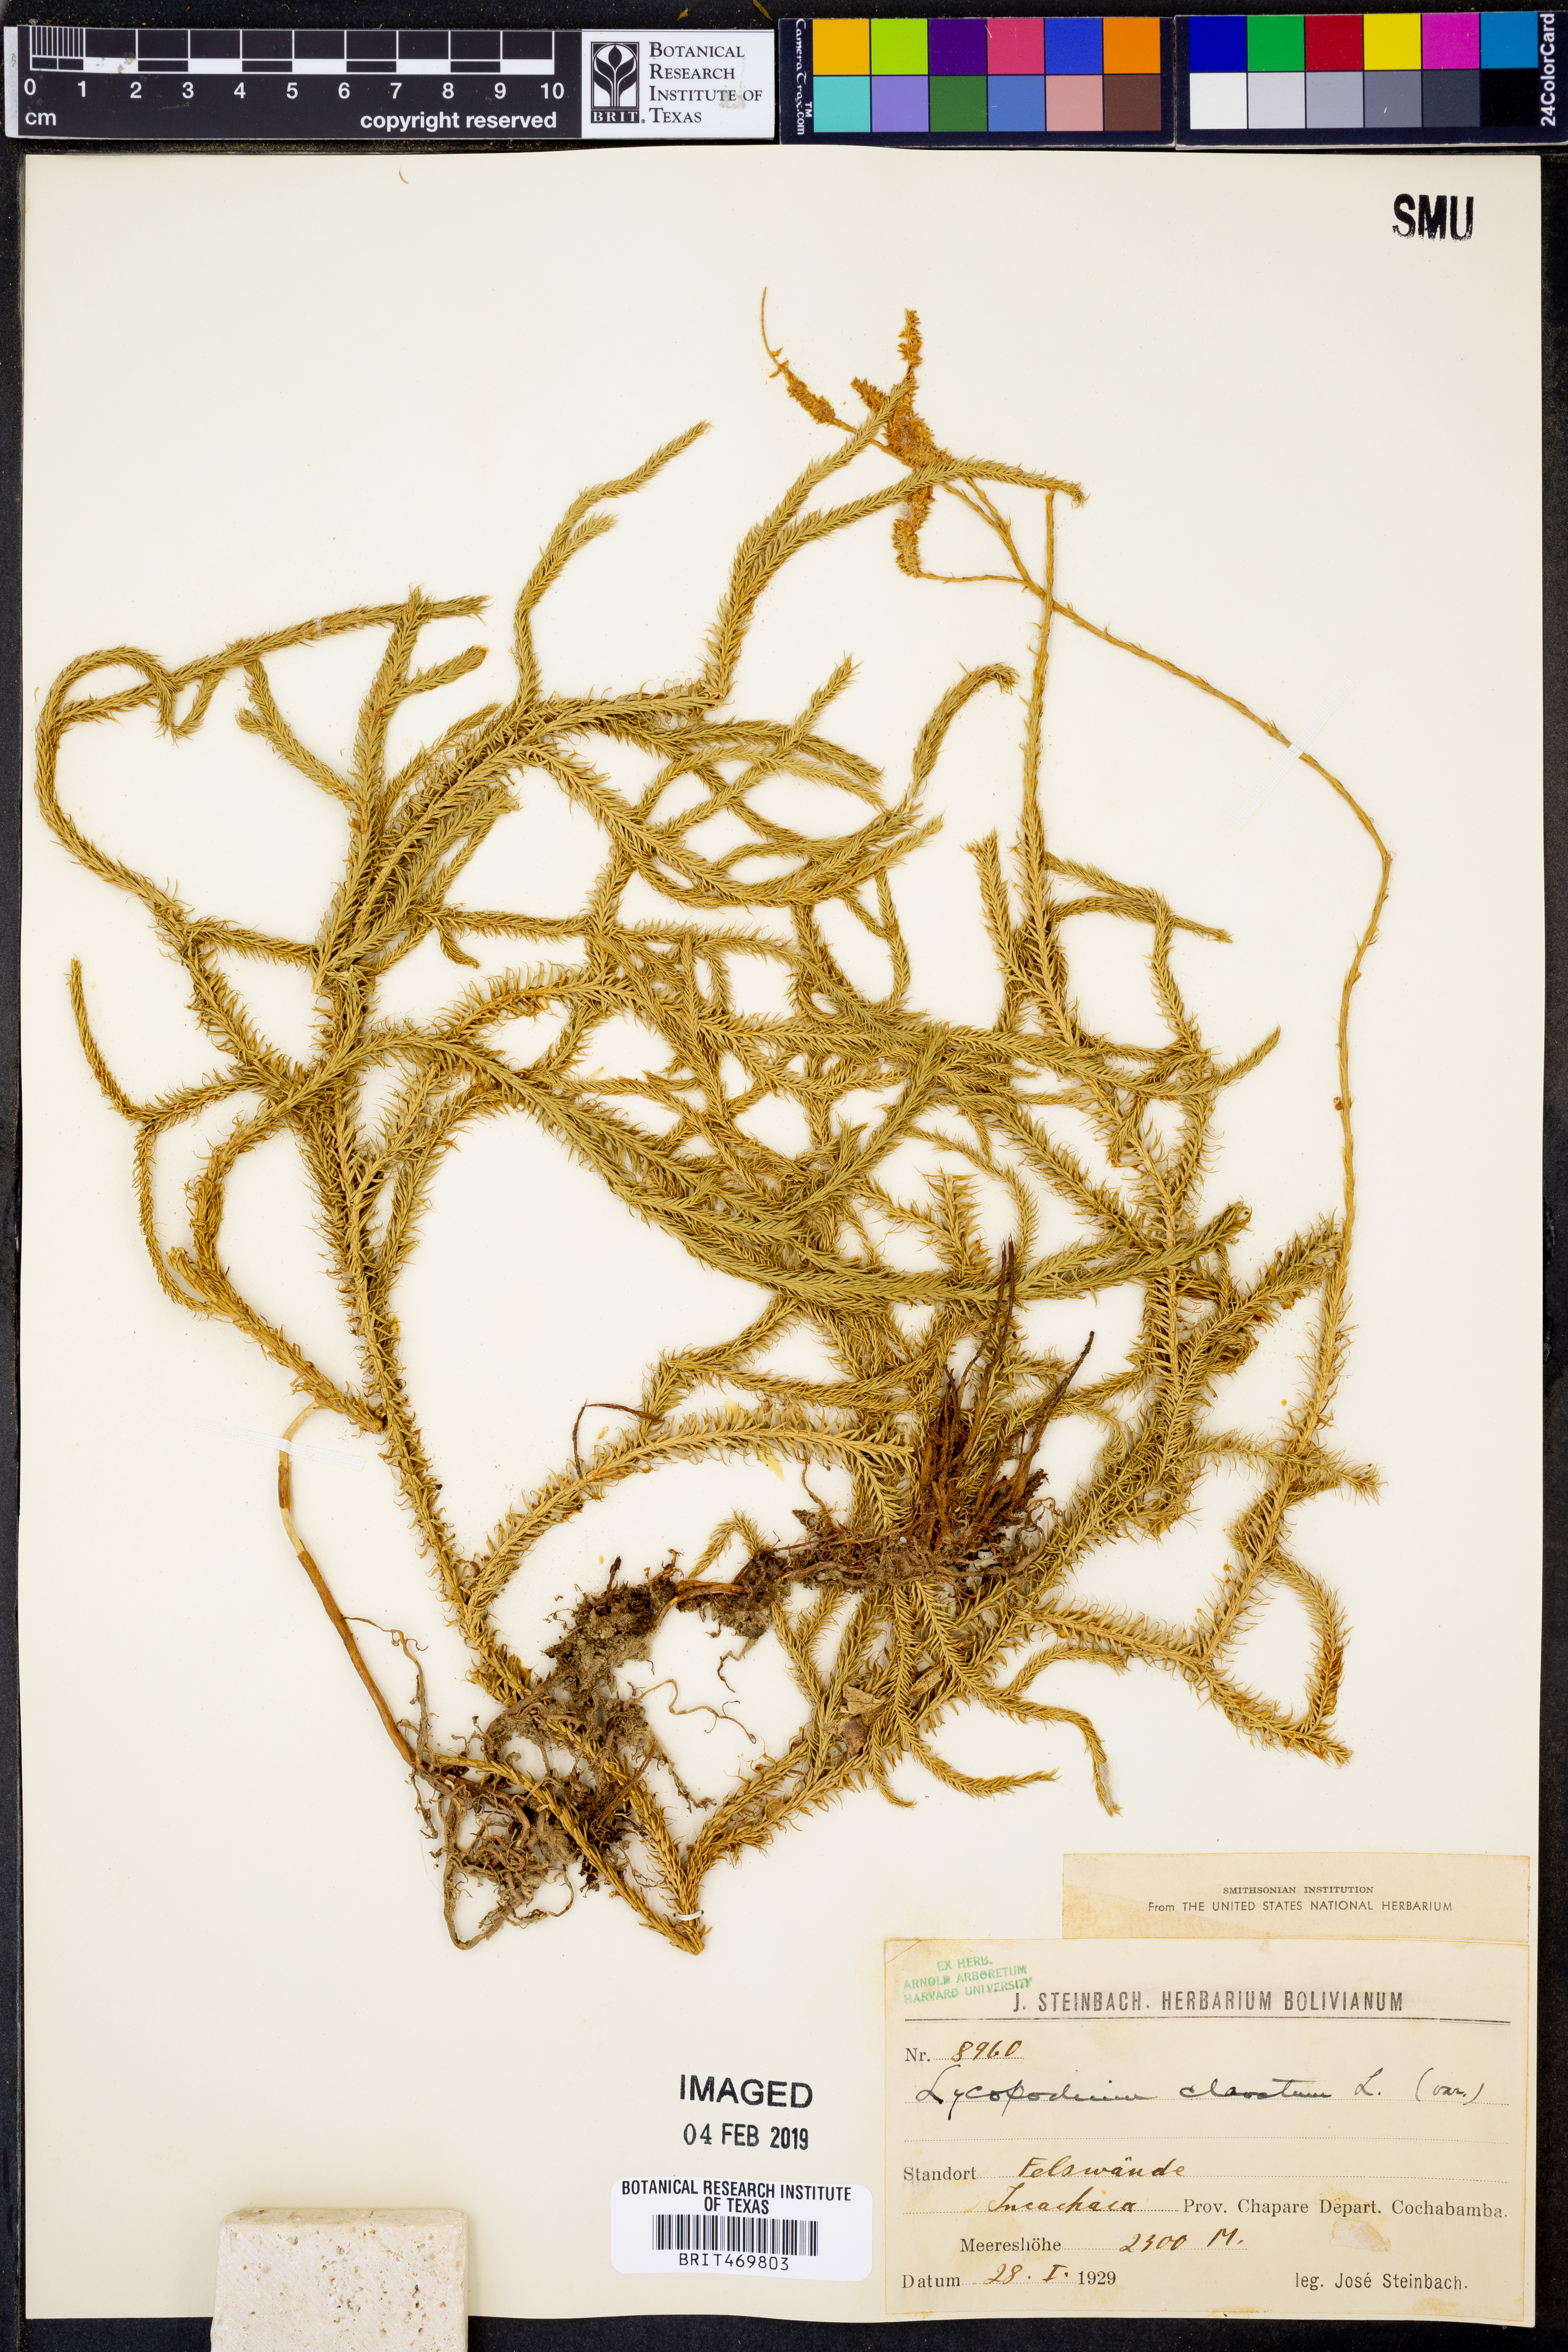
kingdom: Plantae
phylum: Tracheophyta
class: Lycopodiopsida
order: Lycopodiales
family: Lycopodiaceae
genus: Lycopodium
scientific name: Lycopodium clavatum
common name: Stag's-horn clubmoss
